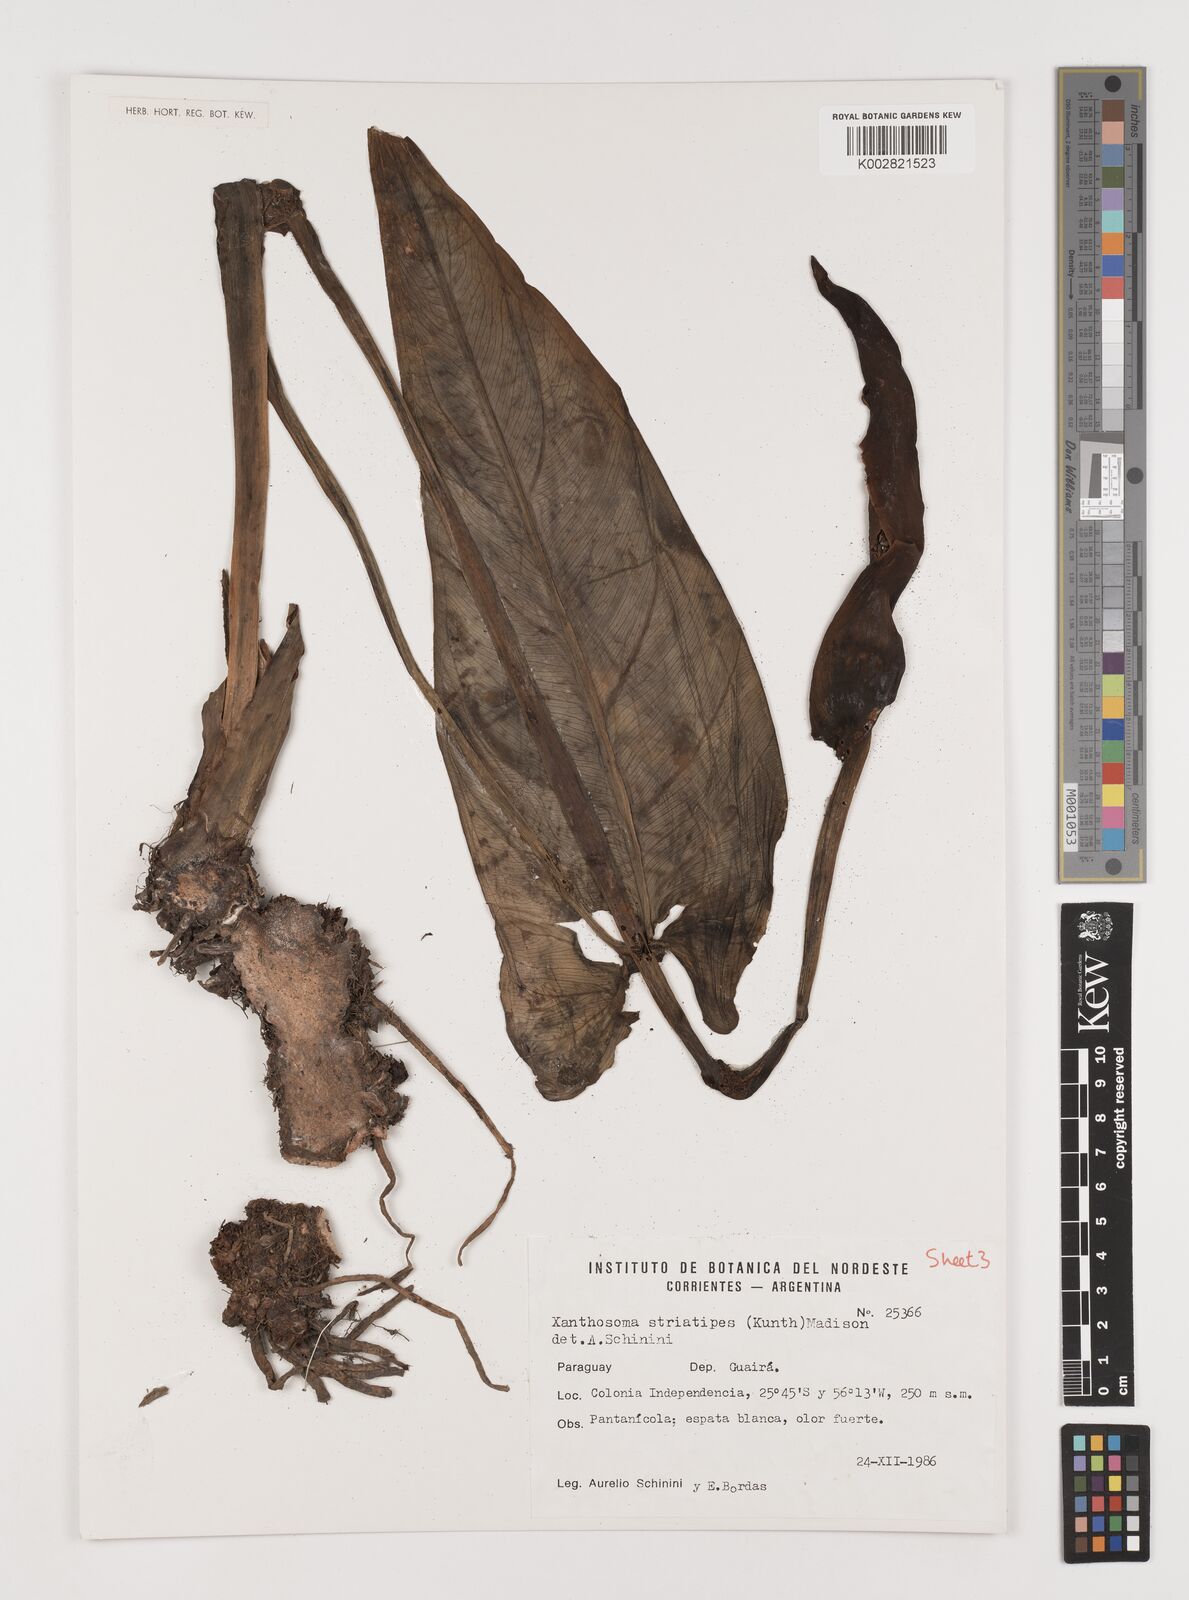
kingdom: Plantae
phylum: Tracheophyta
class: Liliopsida
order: Alismatales
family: Araceae
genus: Xanthosoma
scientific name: Xanthosoma striatipes
